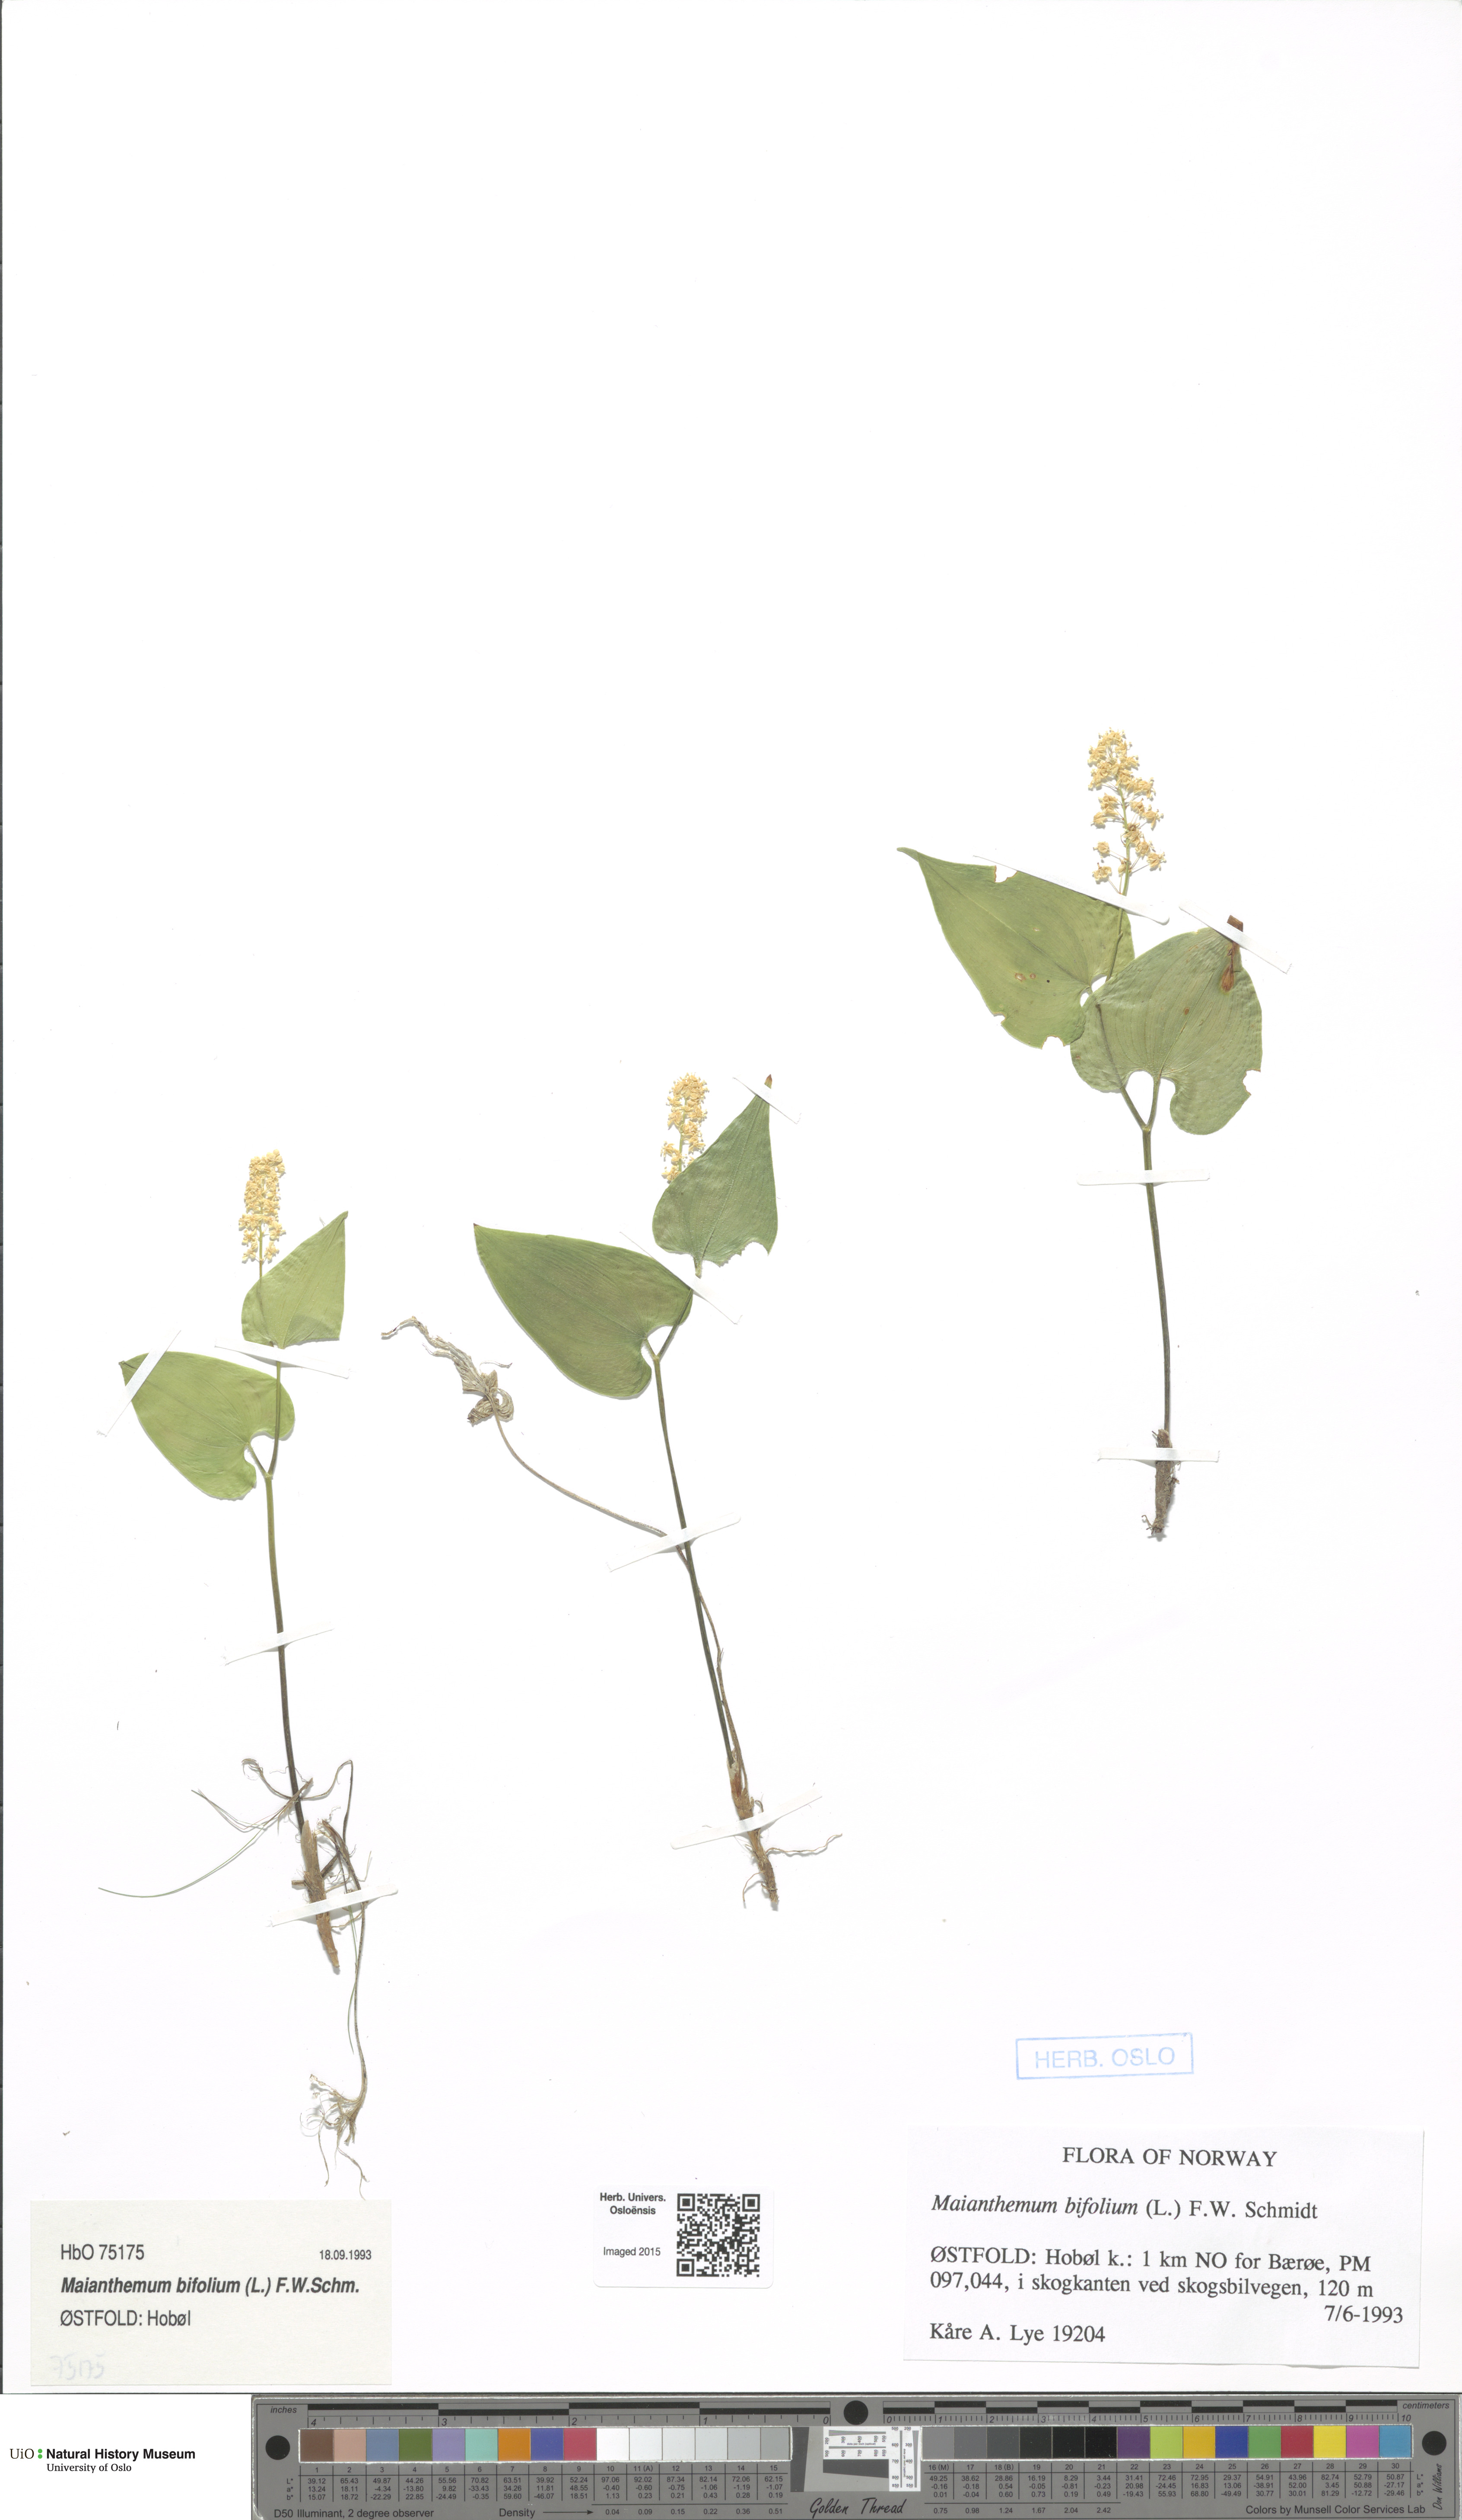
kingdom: Plantae
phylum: Tracheophyta
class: Liliopsida
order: Asparagales
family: Asparagaceae
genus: Maianthemum
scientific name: Maianthemum bifolium
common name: May lily
